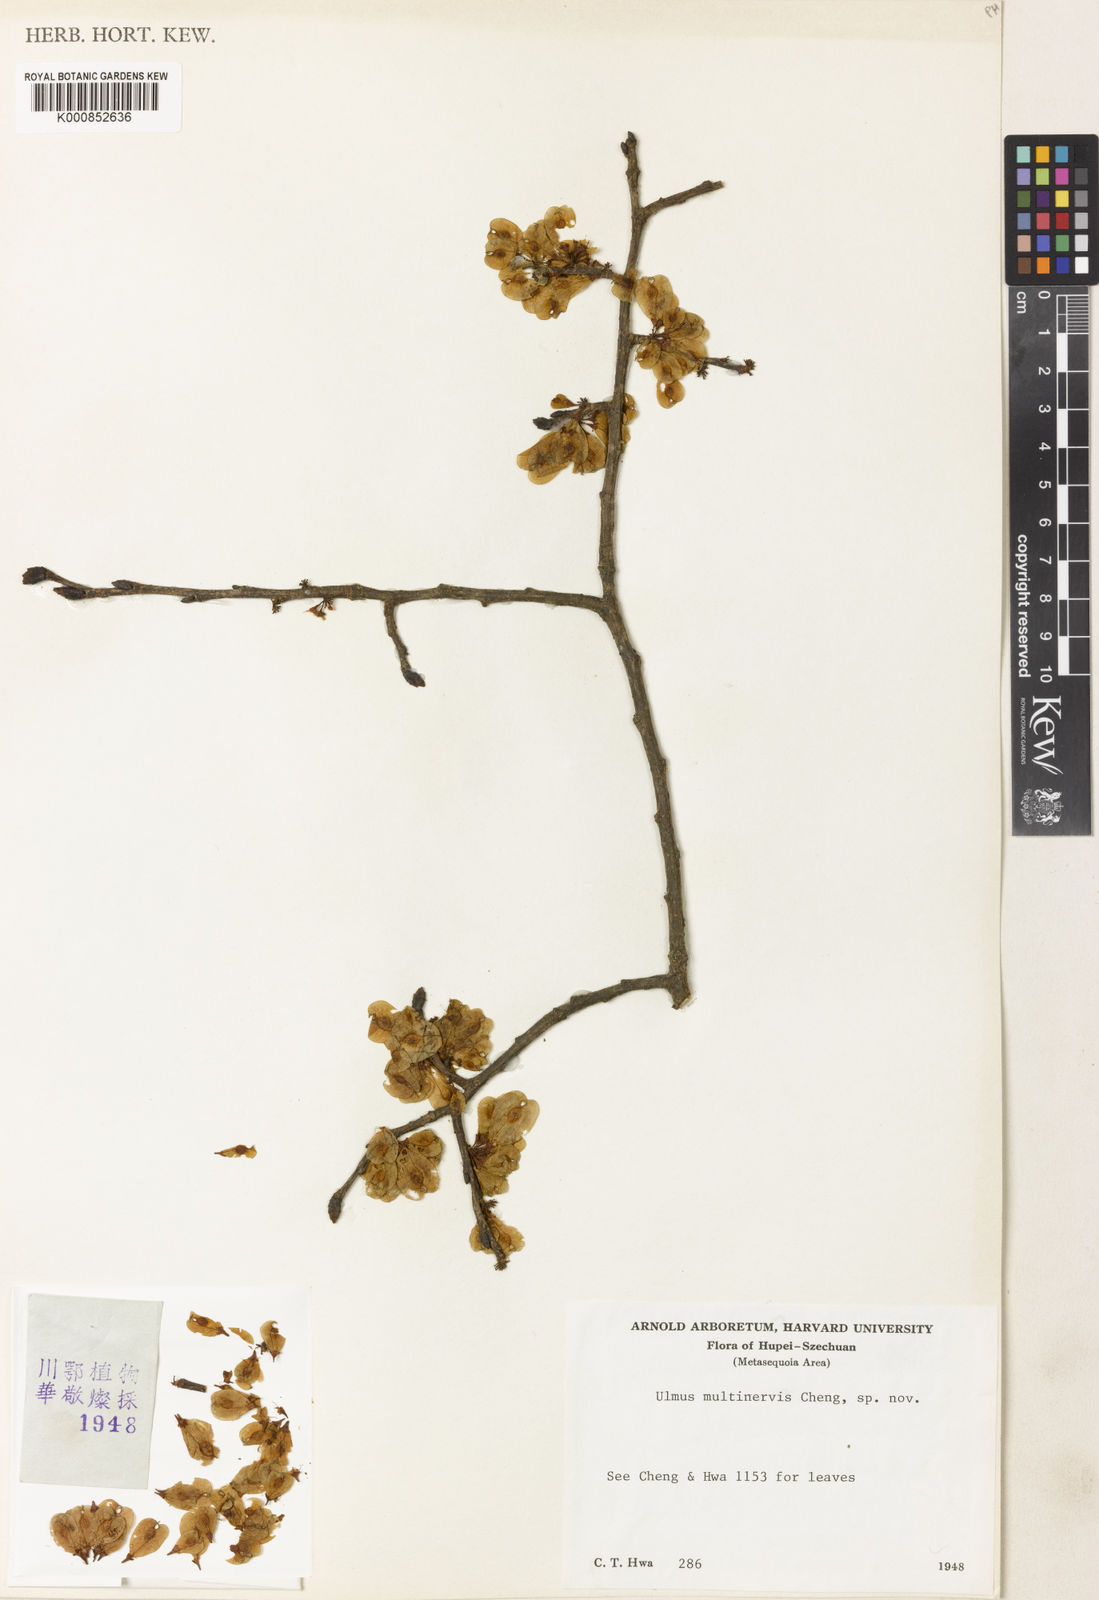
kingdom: Plantae
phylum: Tracheophyta
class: Magnoliopsida
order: Rosales
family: Ulmaceae
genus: Ulmus
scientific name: Ulmus castaneifolia
